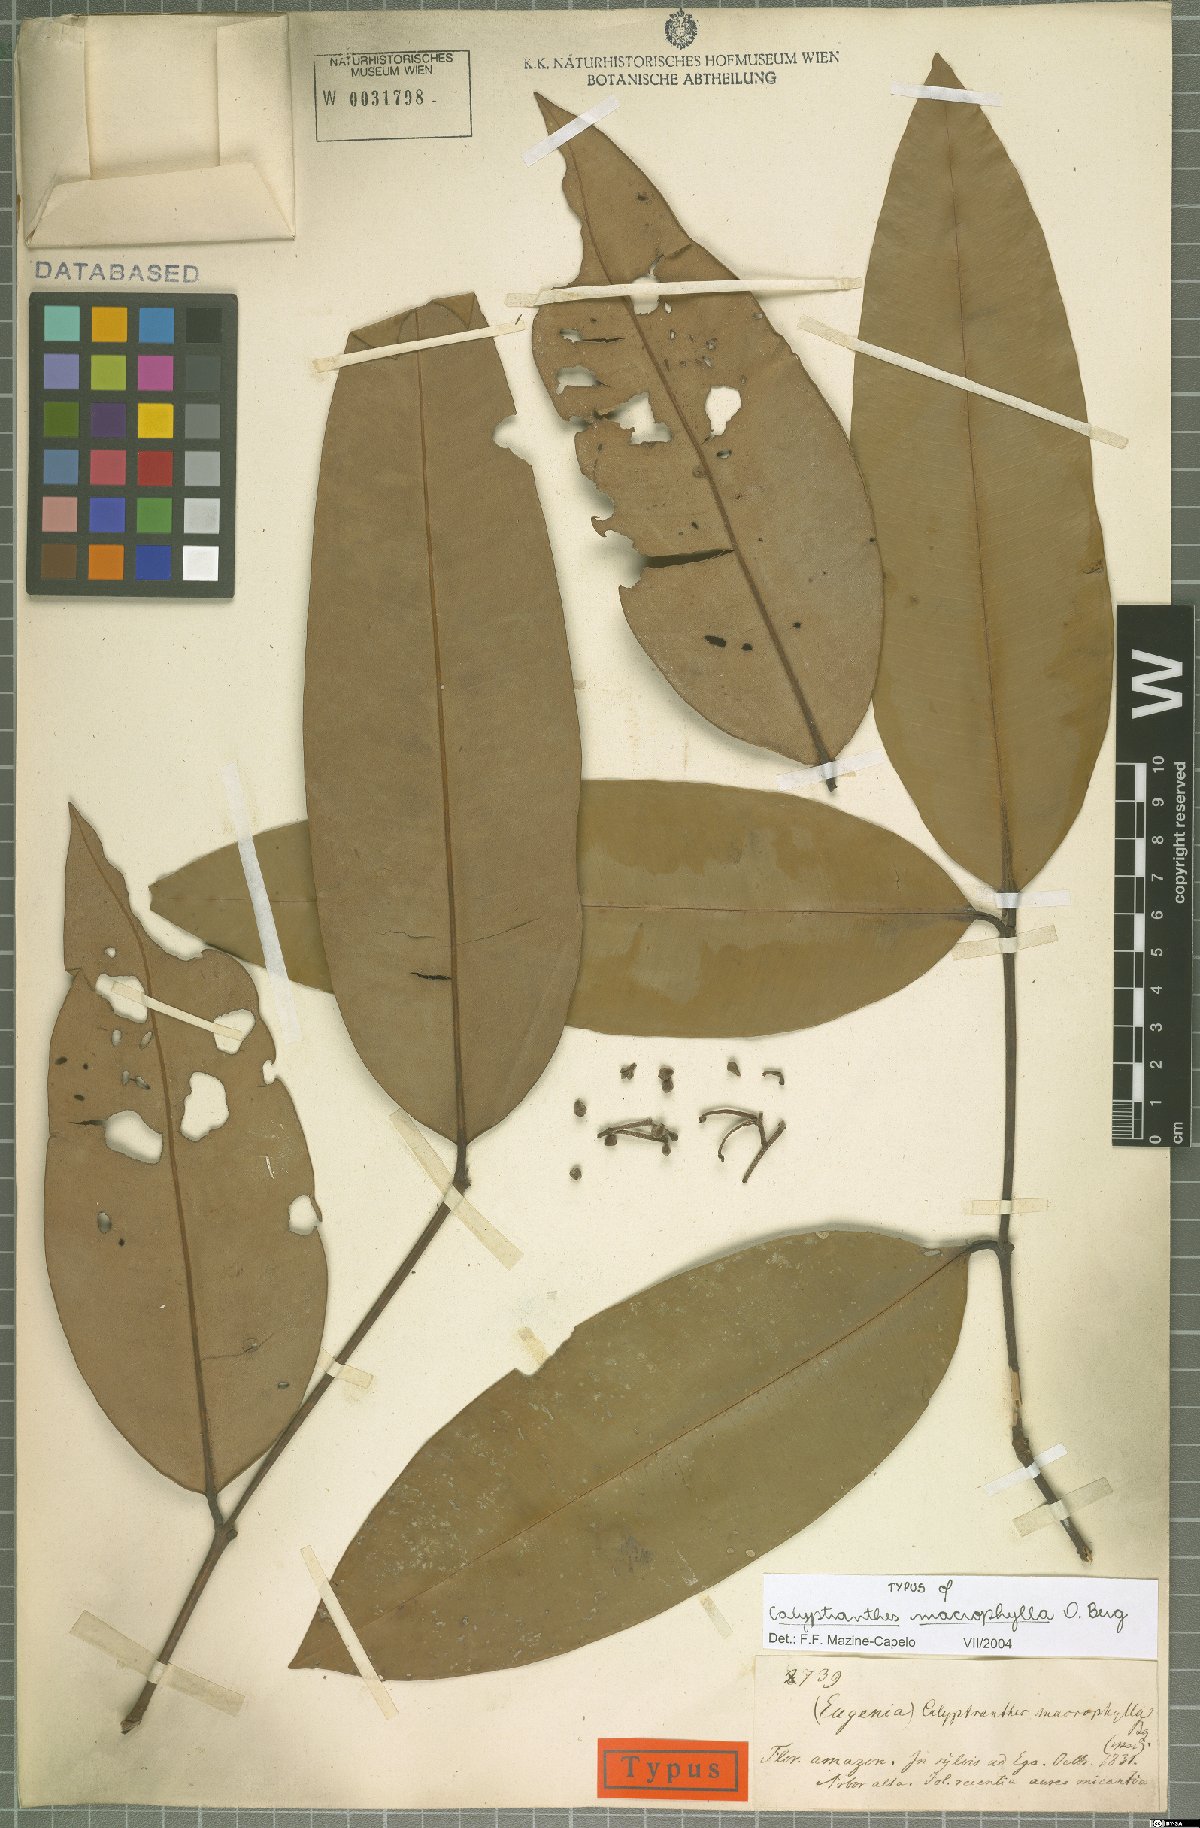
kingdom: Plantae
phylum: Tracheophyta
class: Magnoliopsida
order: Myrtales
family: Myrtaceae
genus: Myrcia
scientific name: Myrcia neomacrophylla
